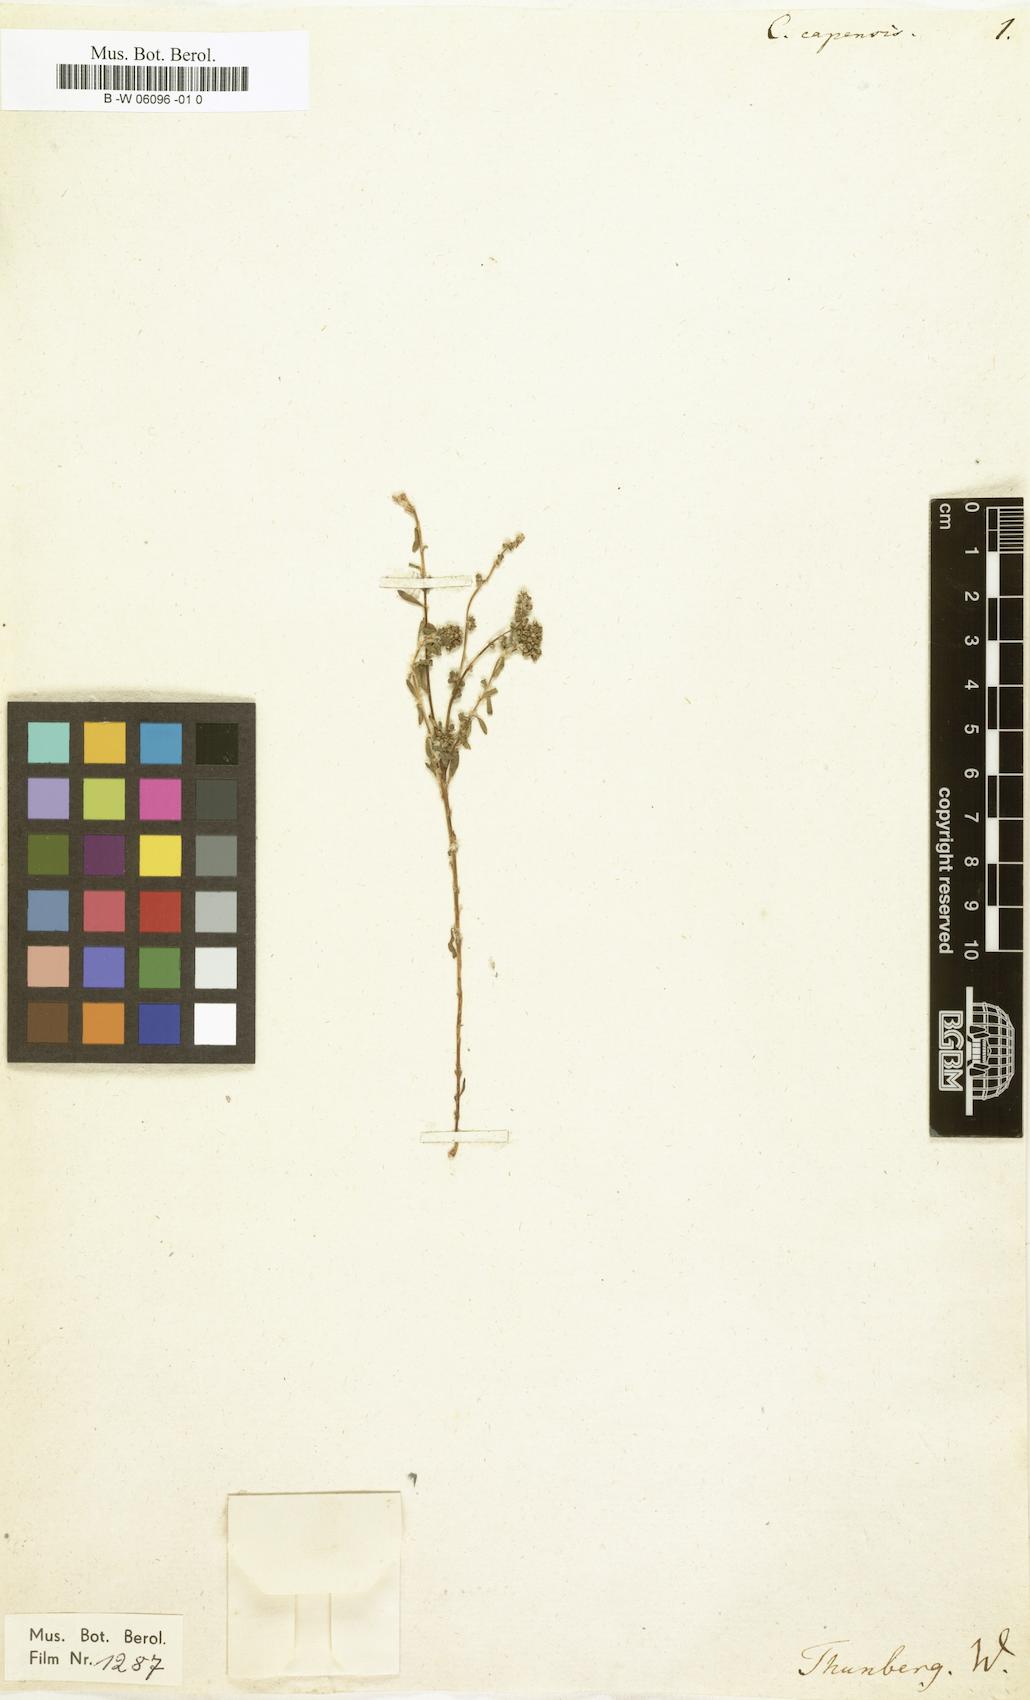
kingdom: Plantae
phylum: Tracheophyta
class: Magnoliopsida
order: Caryophyllales
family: Caryophyllaceae
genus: Corrigiola
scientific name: Corrigiola capensis
